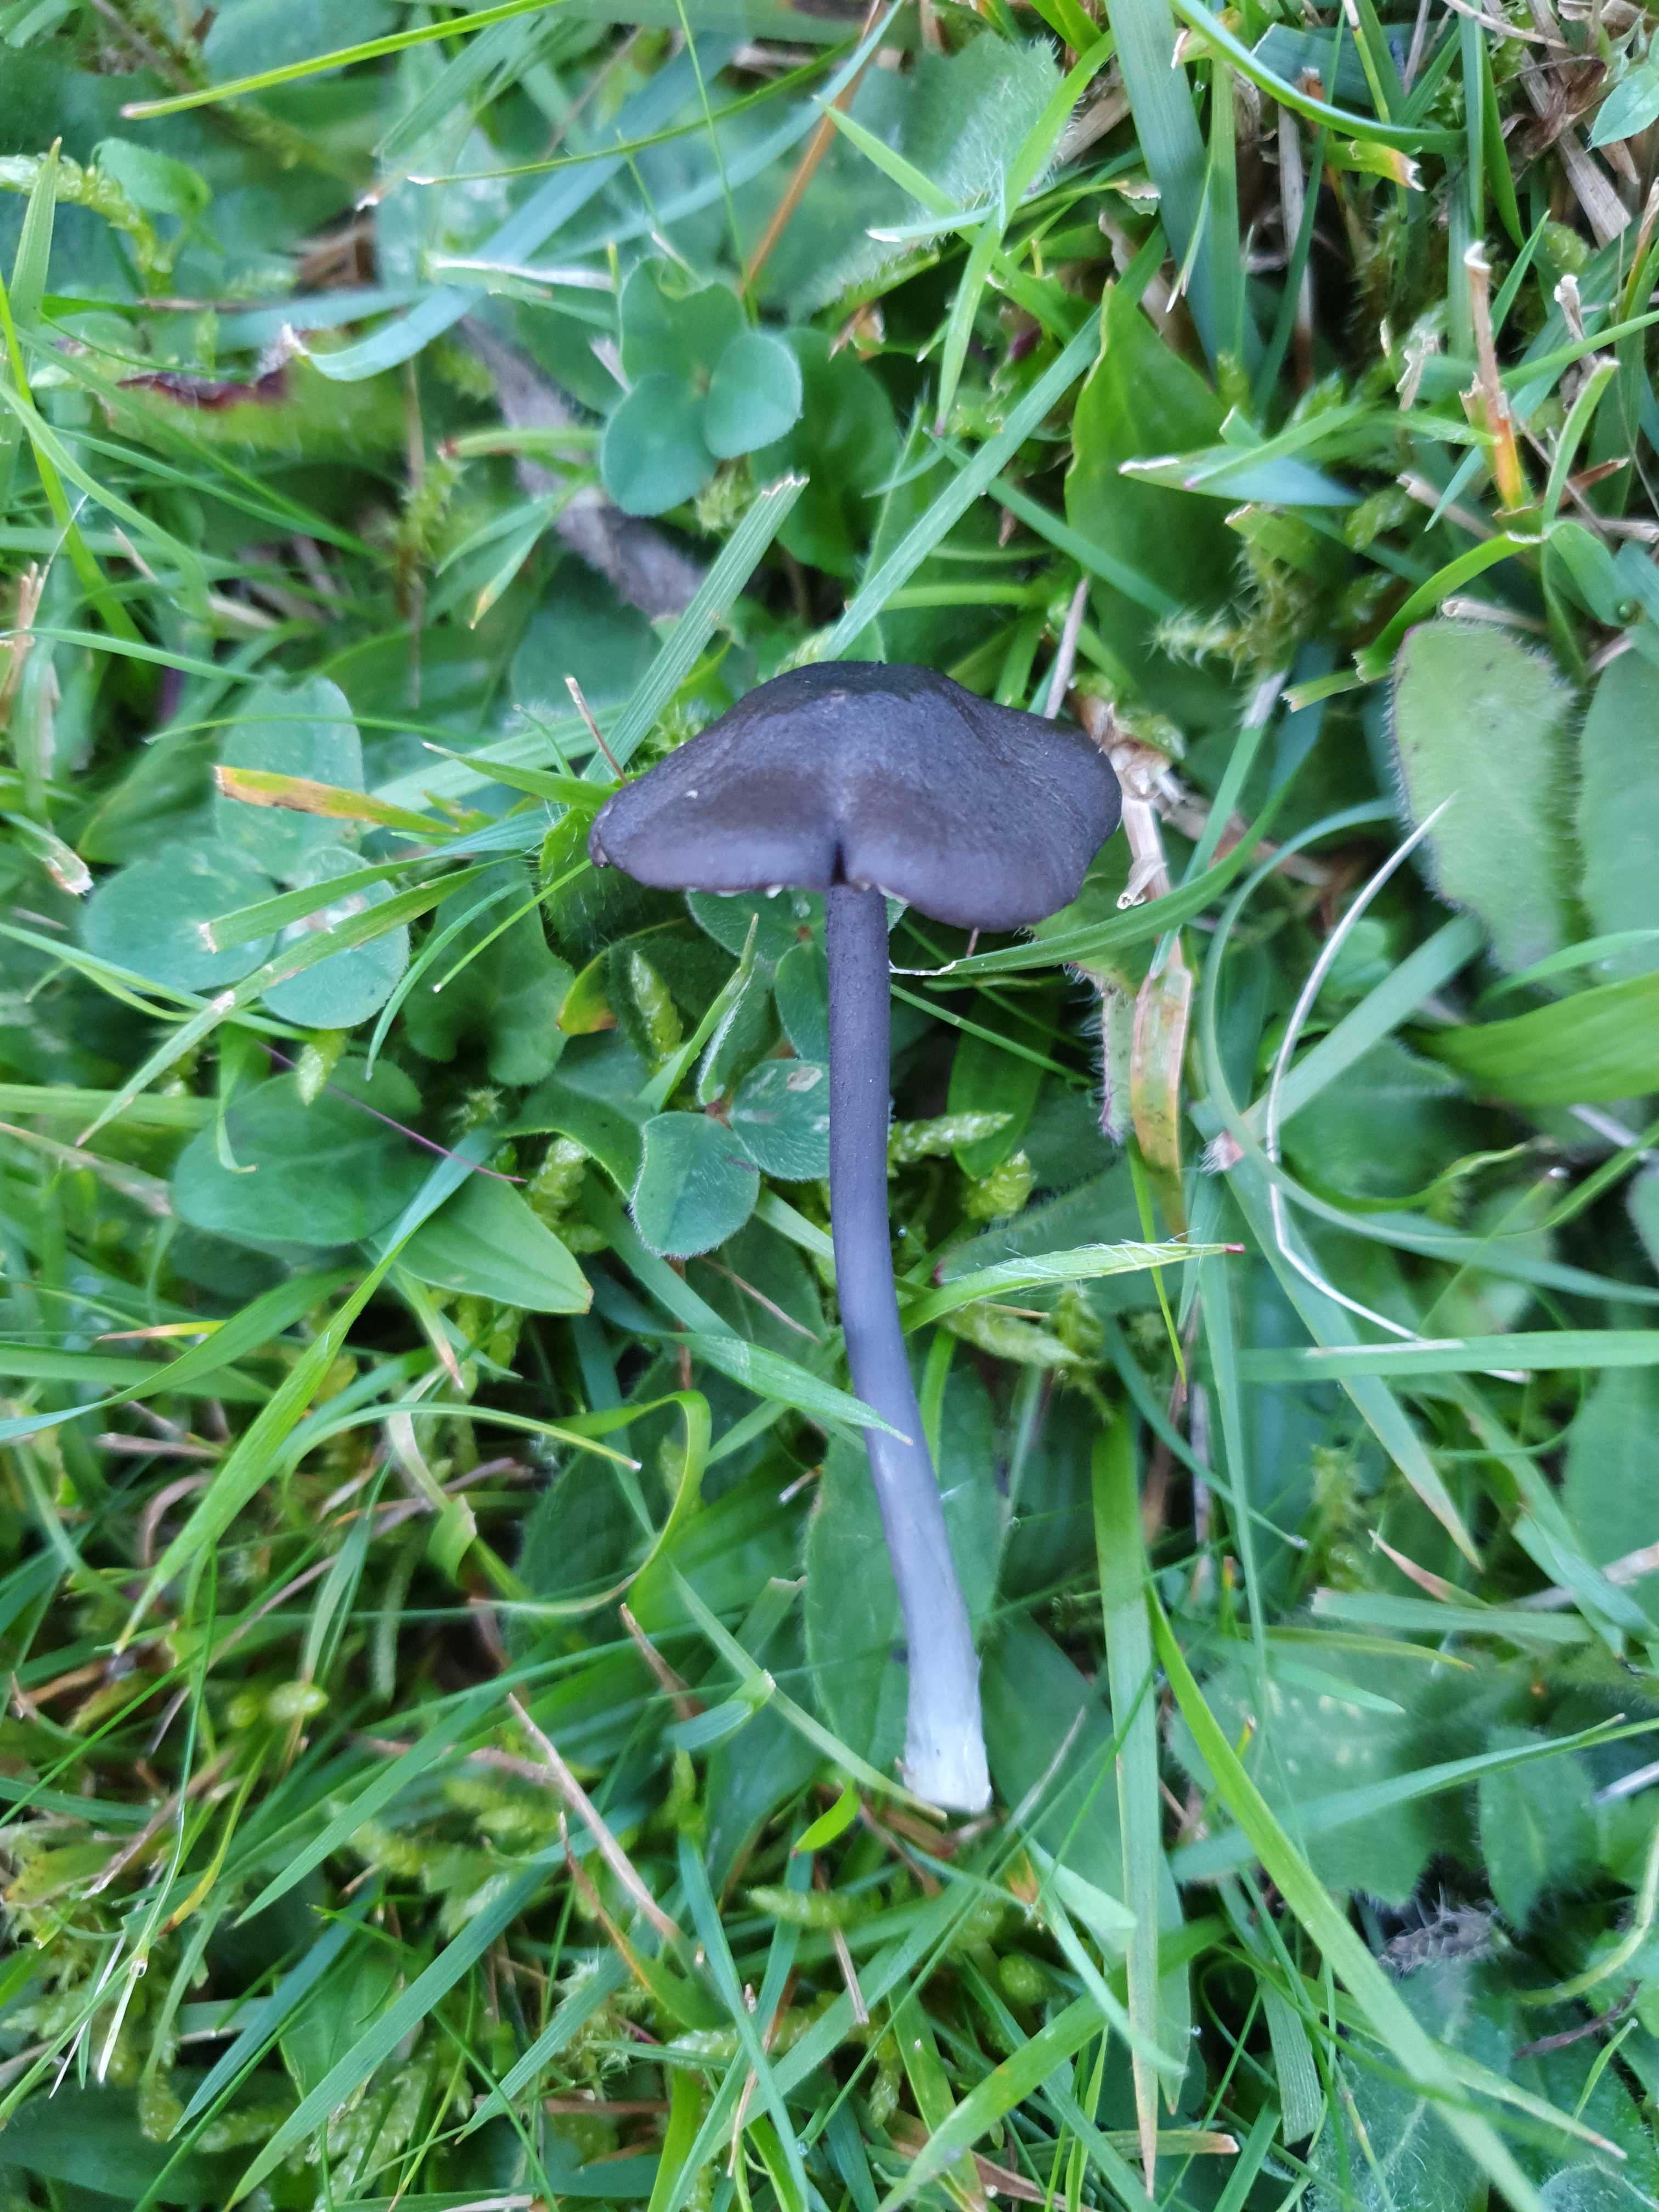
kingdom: Fungi
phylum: Basidiomycota
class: Agaricomycetes
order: Agaricales
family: Entolomataceae
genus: Entoloma
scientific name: Entoloma atrocoeruleum
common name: sortblå rødblad
